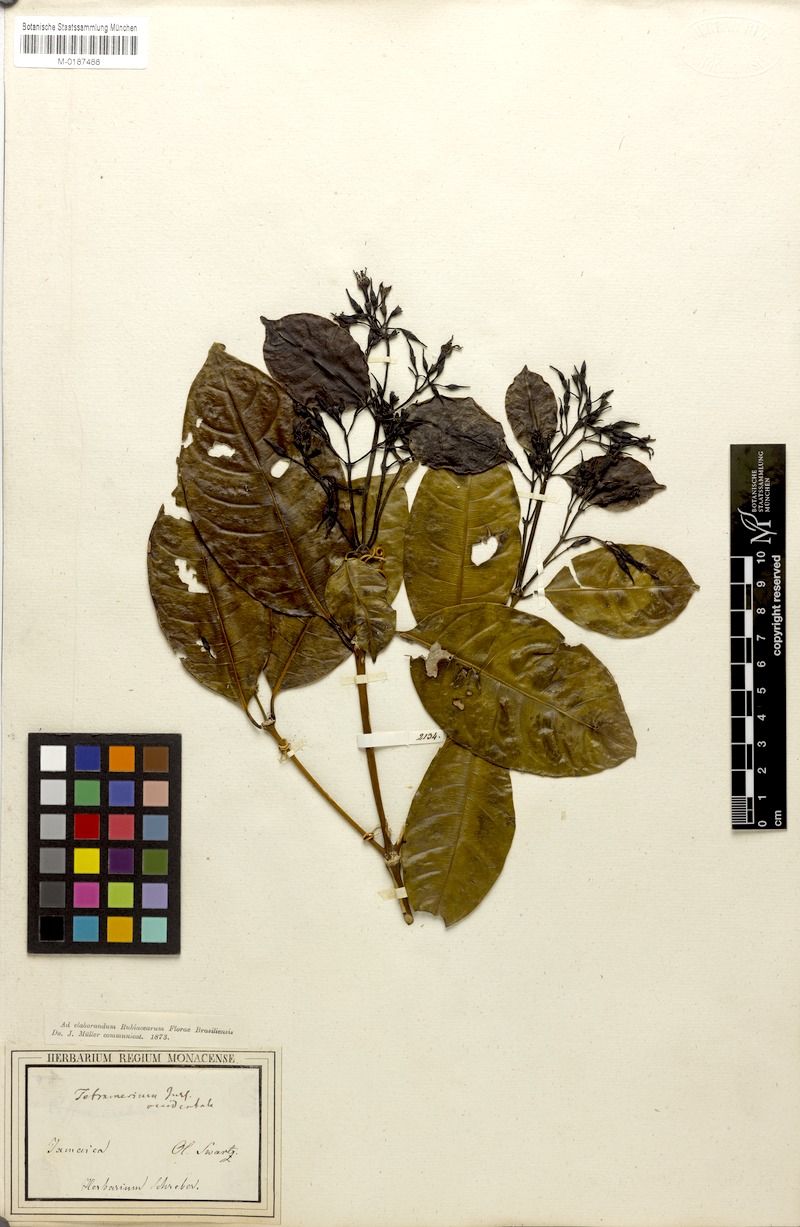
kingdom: Plantae
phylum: Tracheophyta
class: Magnoliopsida
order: Gentianales
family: Rubiaceae
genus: Faramea
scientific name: Faramea occidentalis
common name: False coffee
